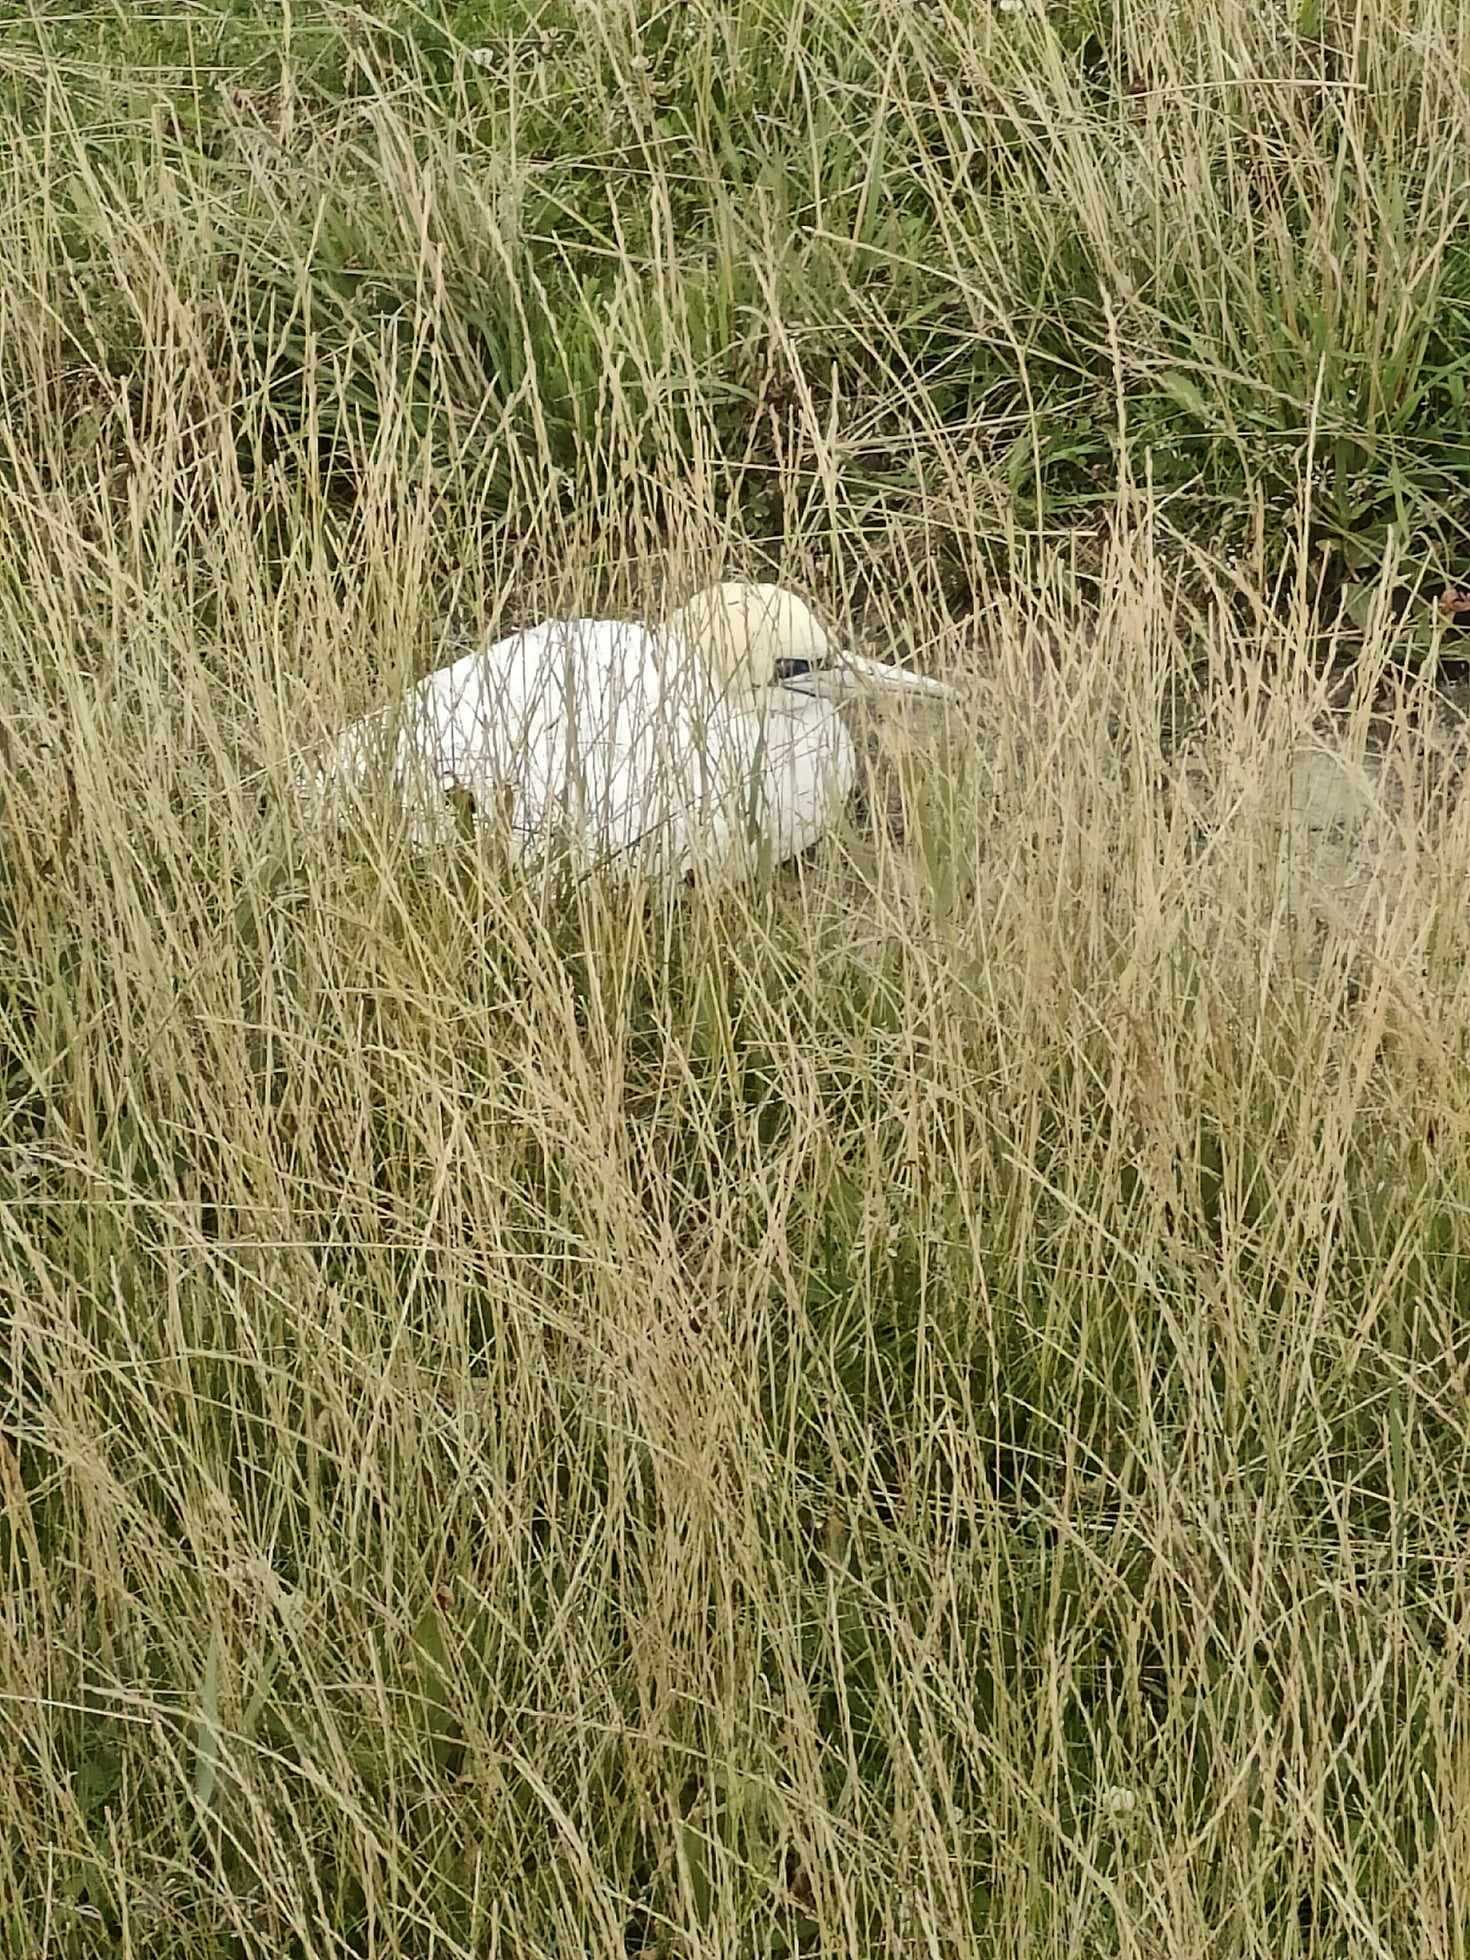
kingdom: Animalia
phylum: Chordata
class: Aves
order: Suliformes
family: Sulidae
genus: Morus
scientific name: Morus bassanus
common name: Sule
